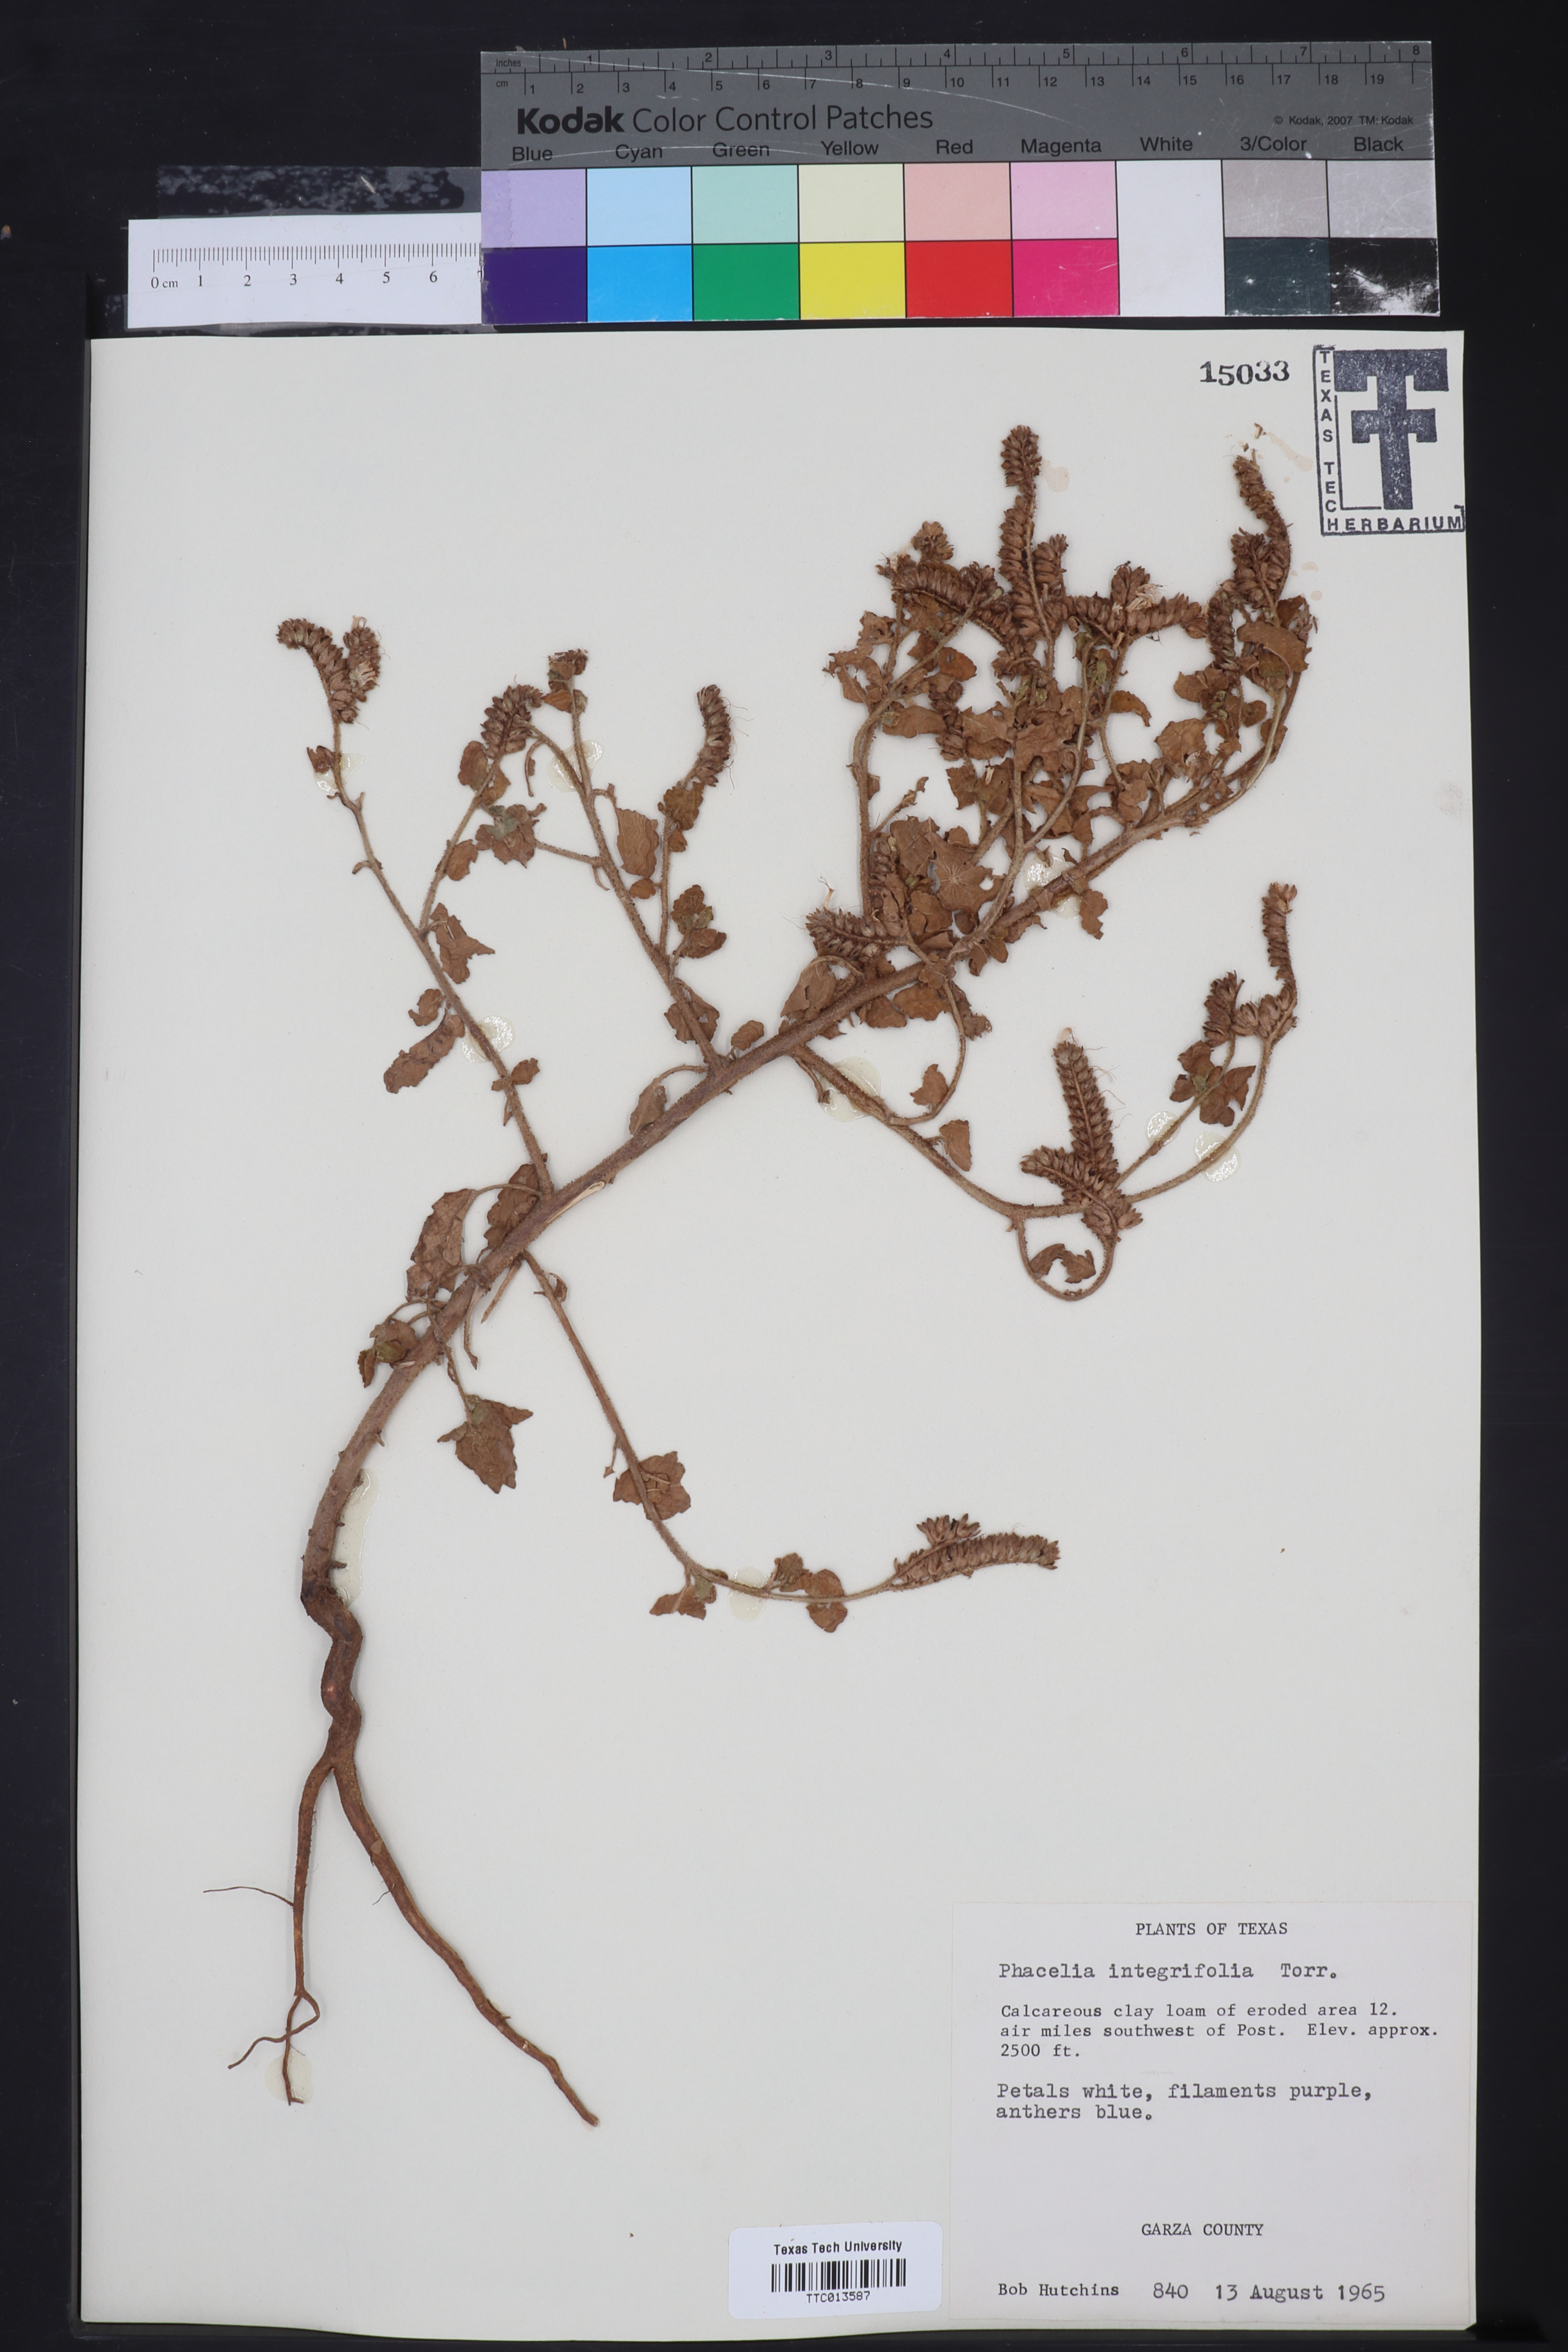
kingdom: Plantae
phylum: Tracheophyta
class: Magnoliopsida
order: Boraginales
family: Hydrophyllaceae
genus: Phacelia
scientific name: Phacelia integrifolia
